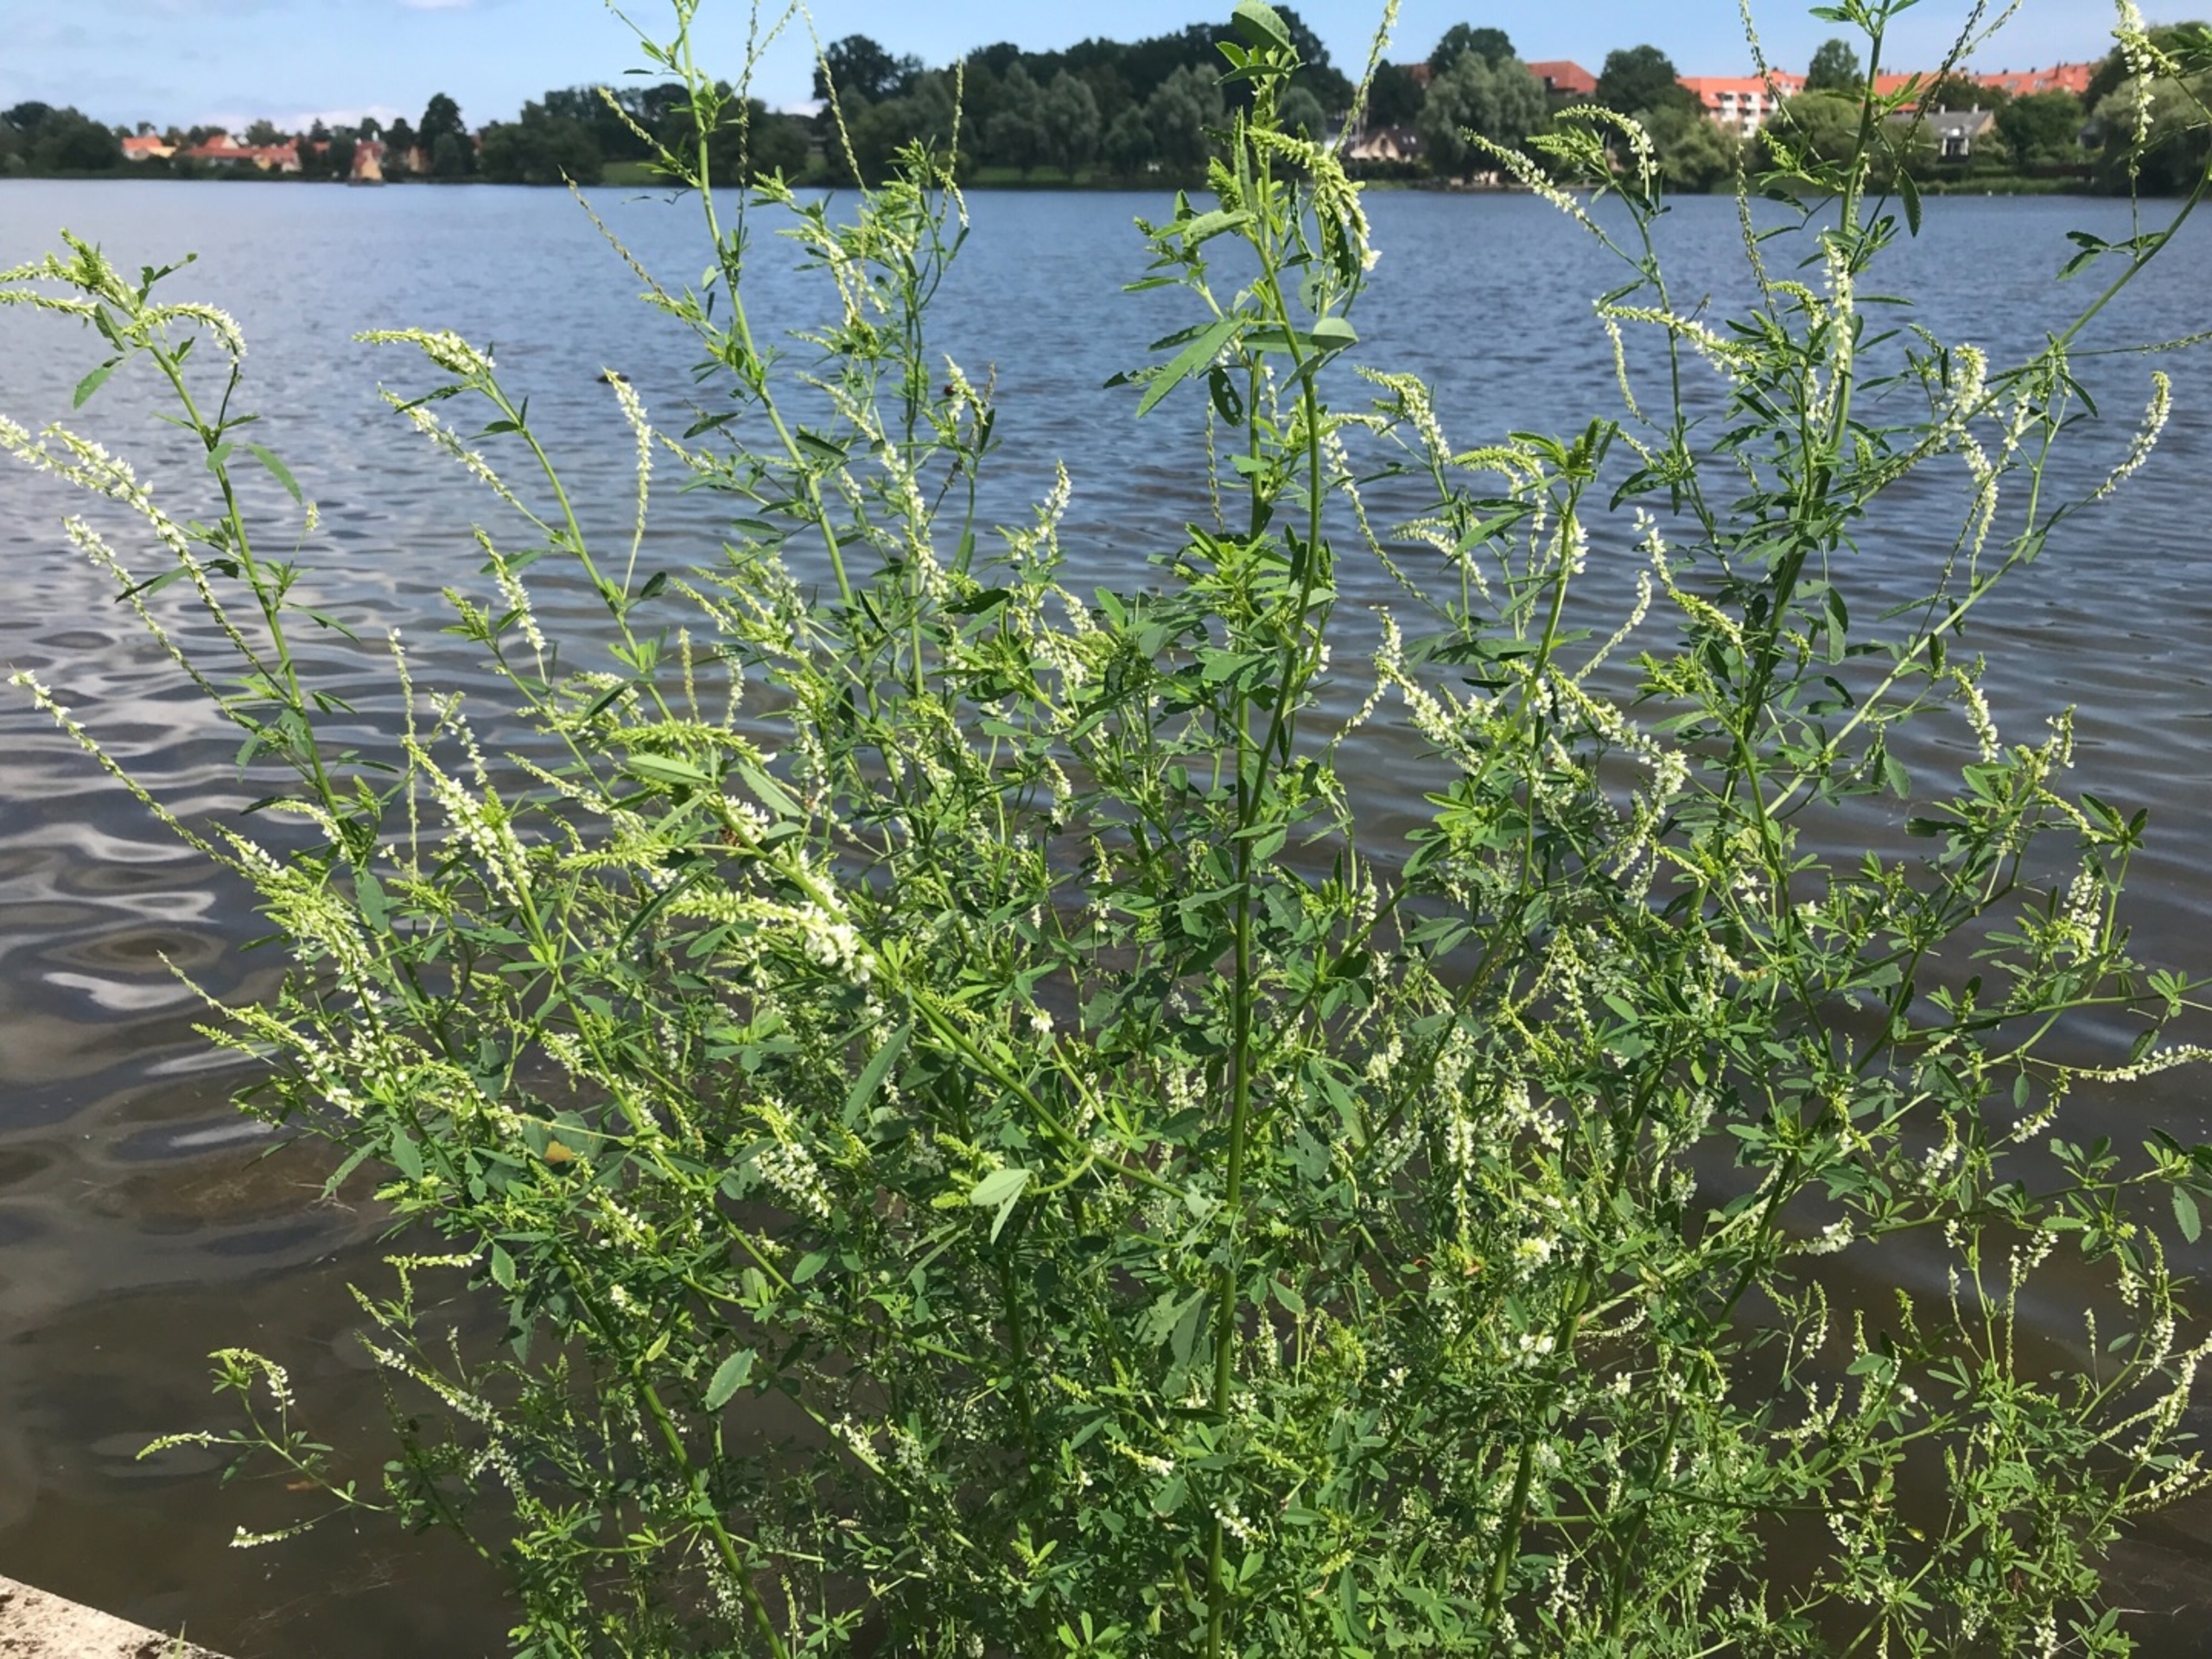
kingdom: Plantae
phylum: Tracheophyta
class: Magnoliopsida
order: Fabales
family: Fabaceae
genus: Melilotus
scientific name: Melilotus albus
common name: Hvid stenkløver
